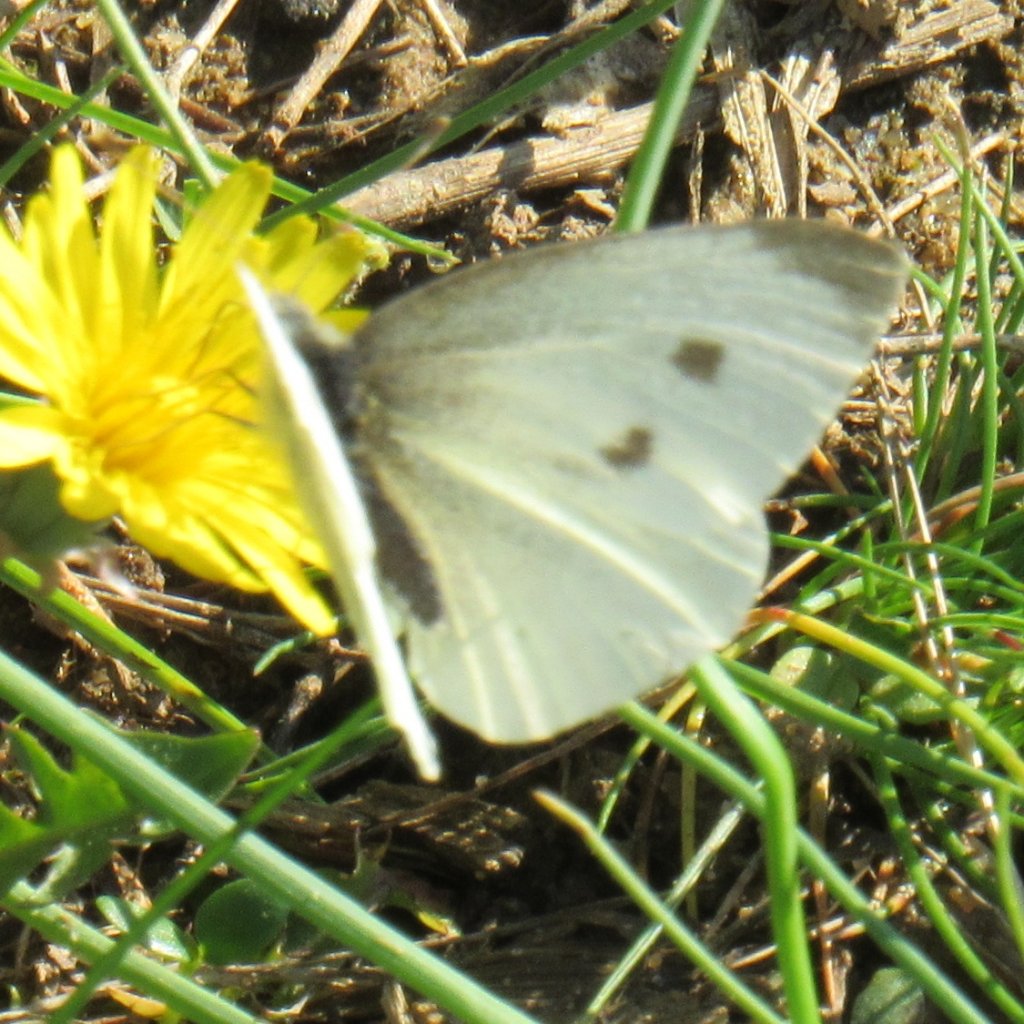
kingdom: Animalia
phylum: Arthropoda
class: Insecta
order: Lepidoptera
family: Pieridae
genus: Pieris
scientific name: Pieris rapae
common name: Cabbage White
